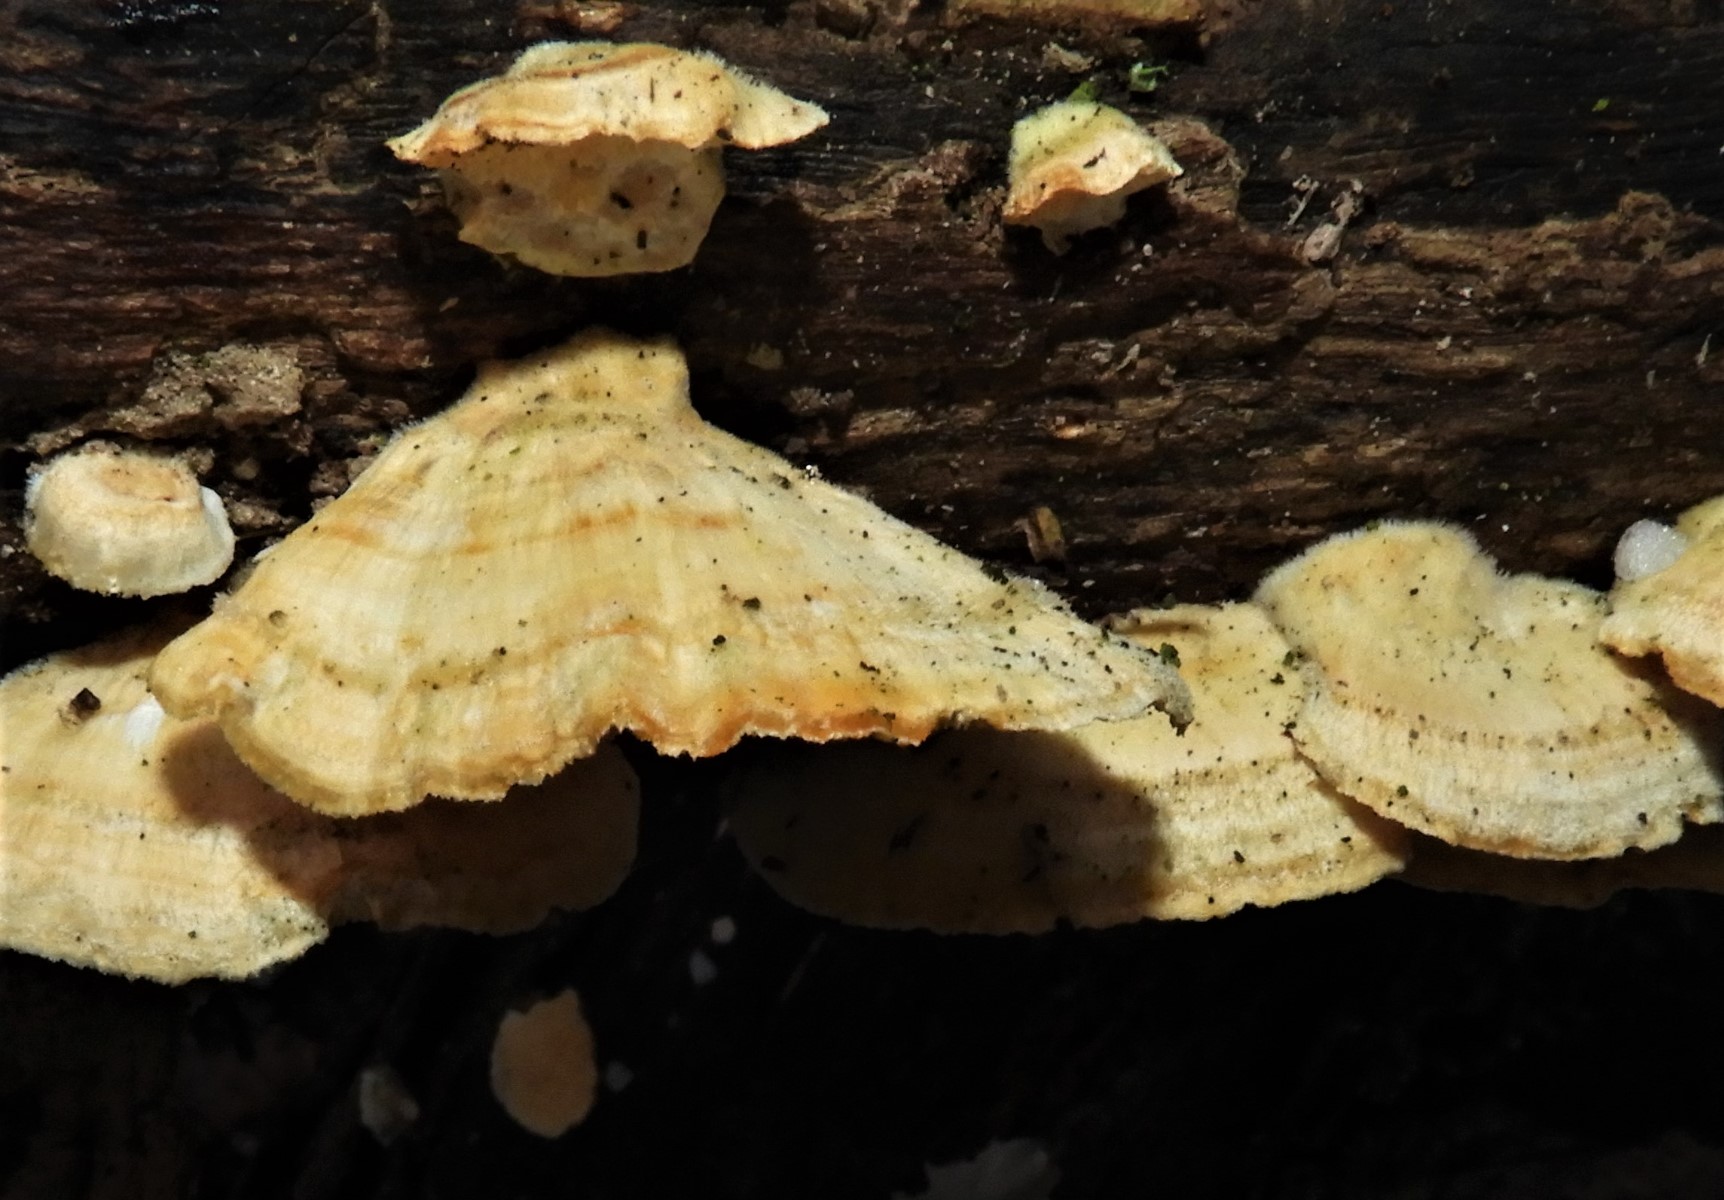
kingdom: Fungi
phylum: Basidiomycota
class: Agaricomycetes
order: Polyporales
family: Polyporaceae
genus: Trametes
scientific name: Trametes
